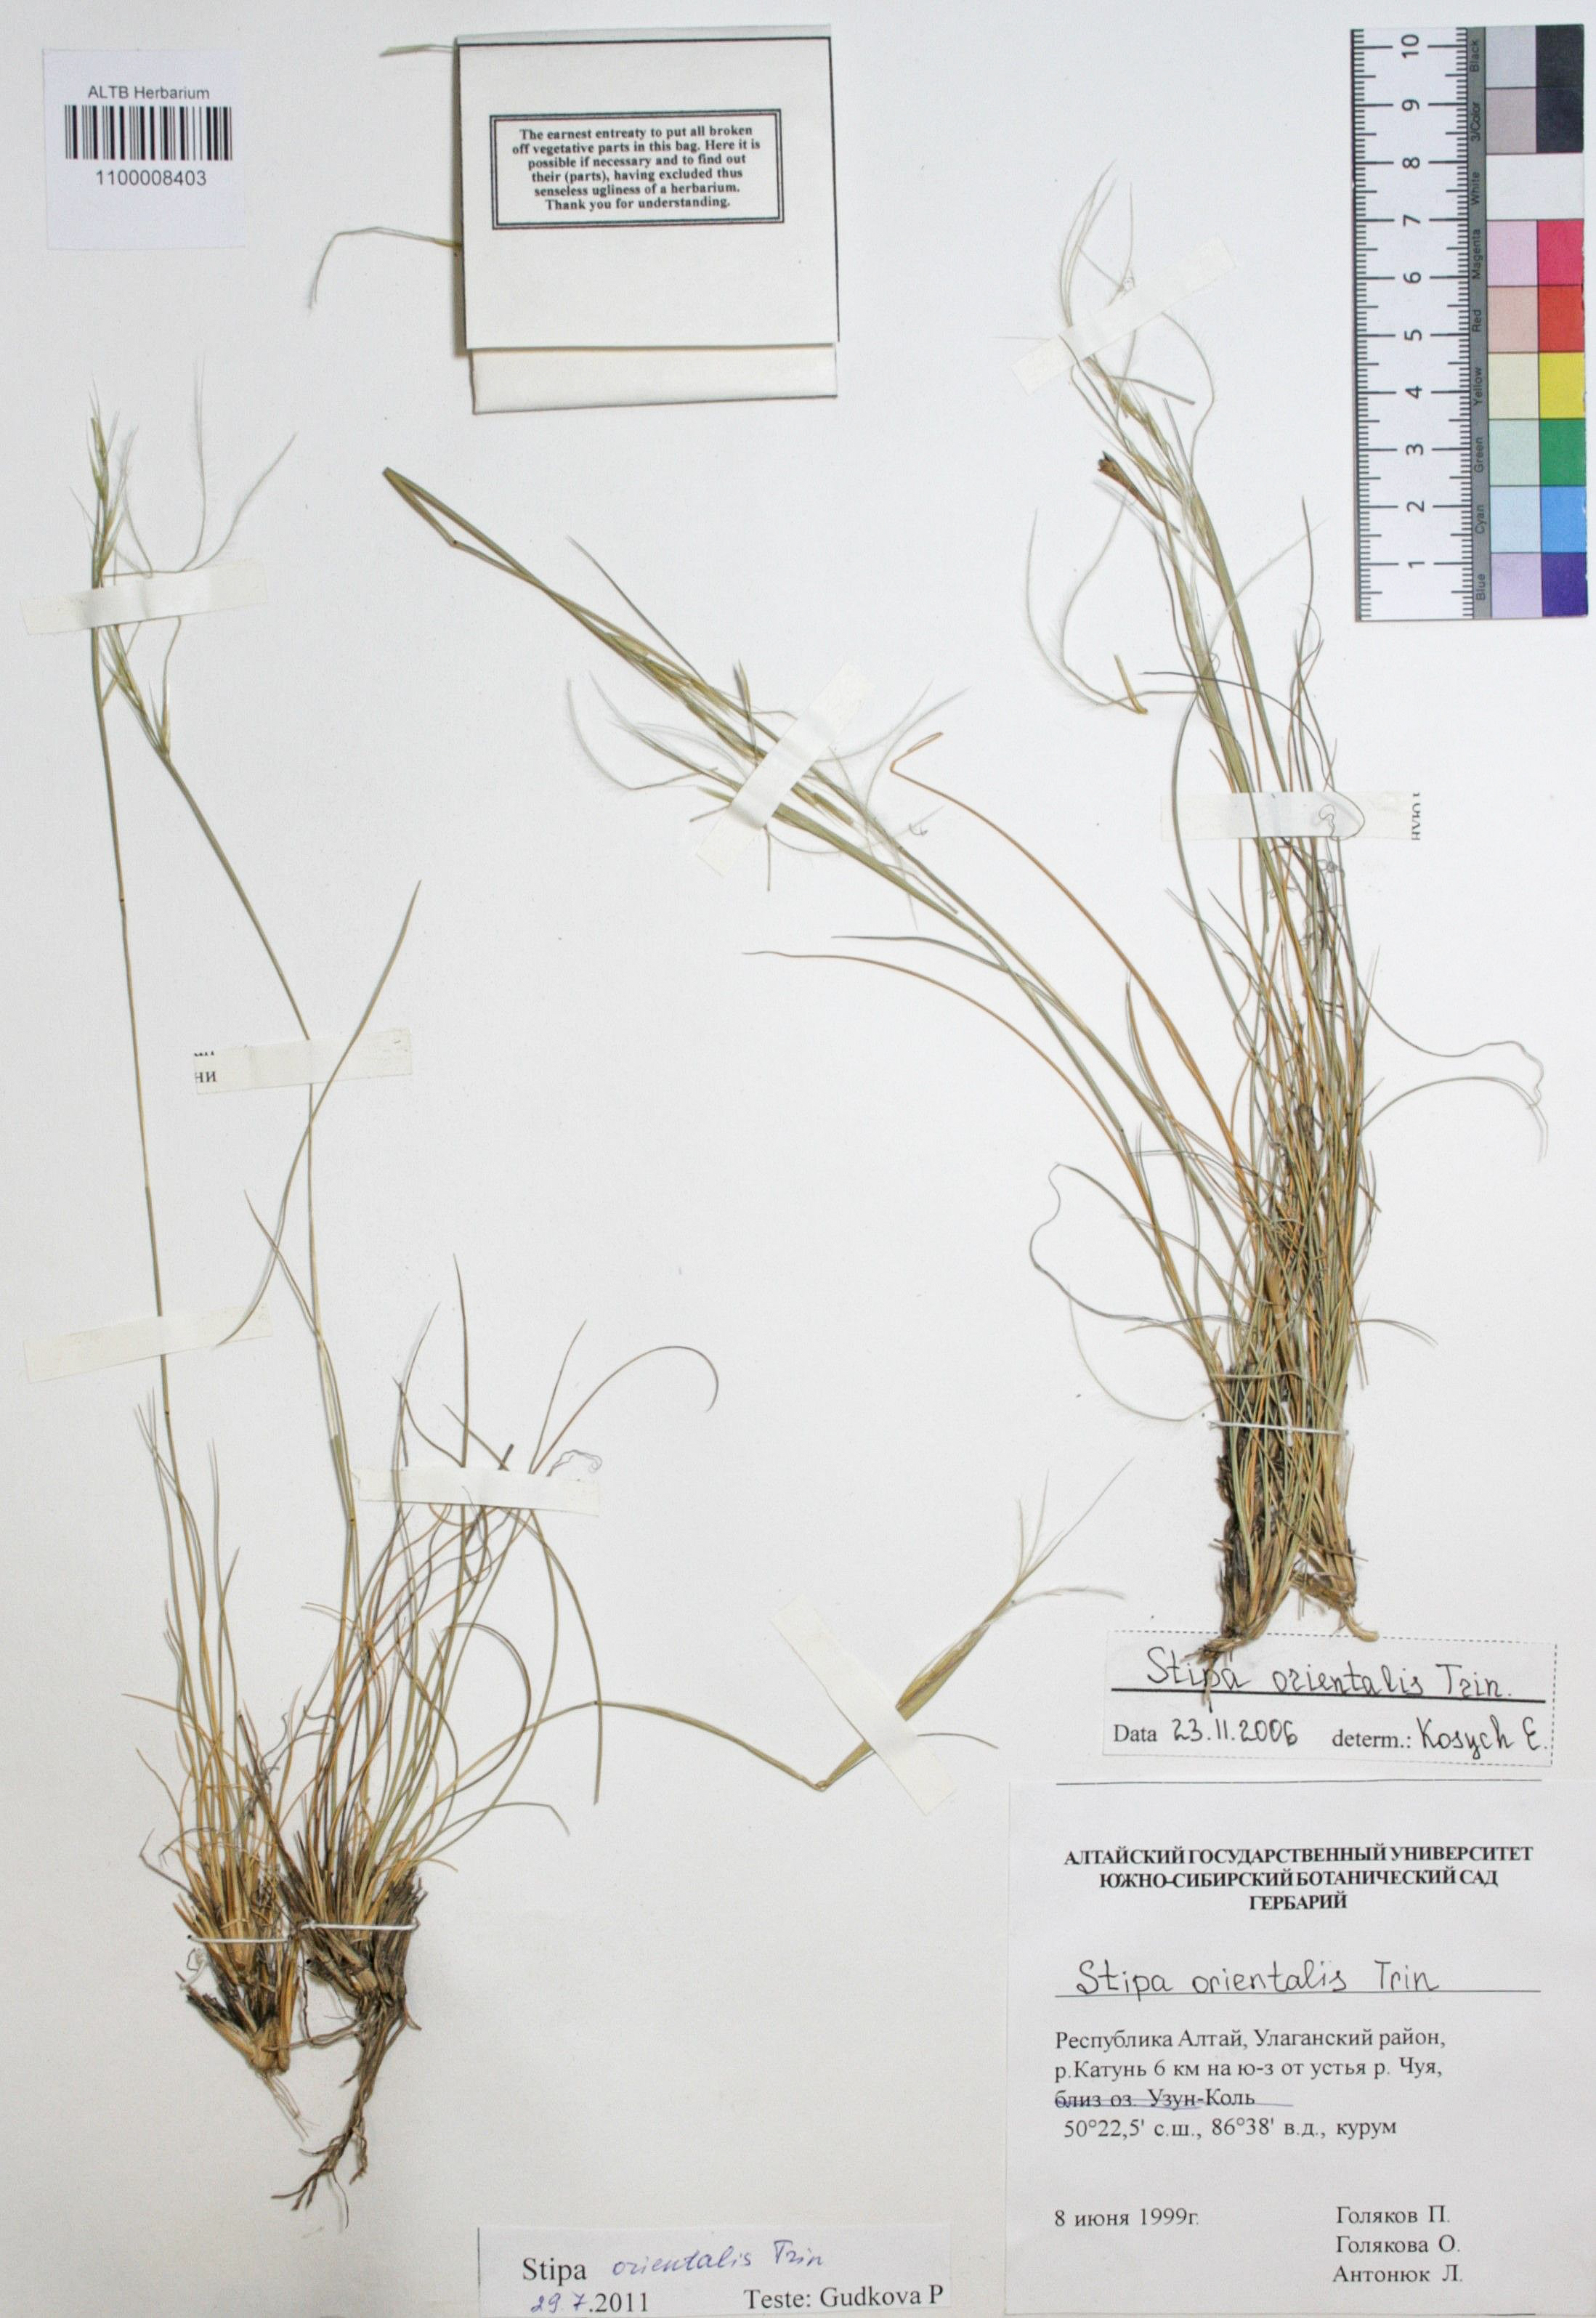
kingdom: Plantae
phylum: Tracheophyta
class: Liliopsida
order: Poales
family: Poaceae
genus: Stipa
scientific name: Stipa orientalis
